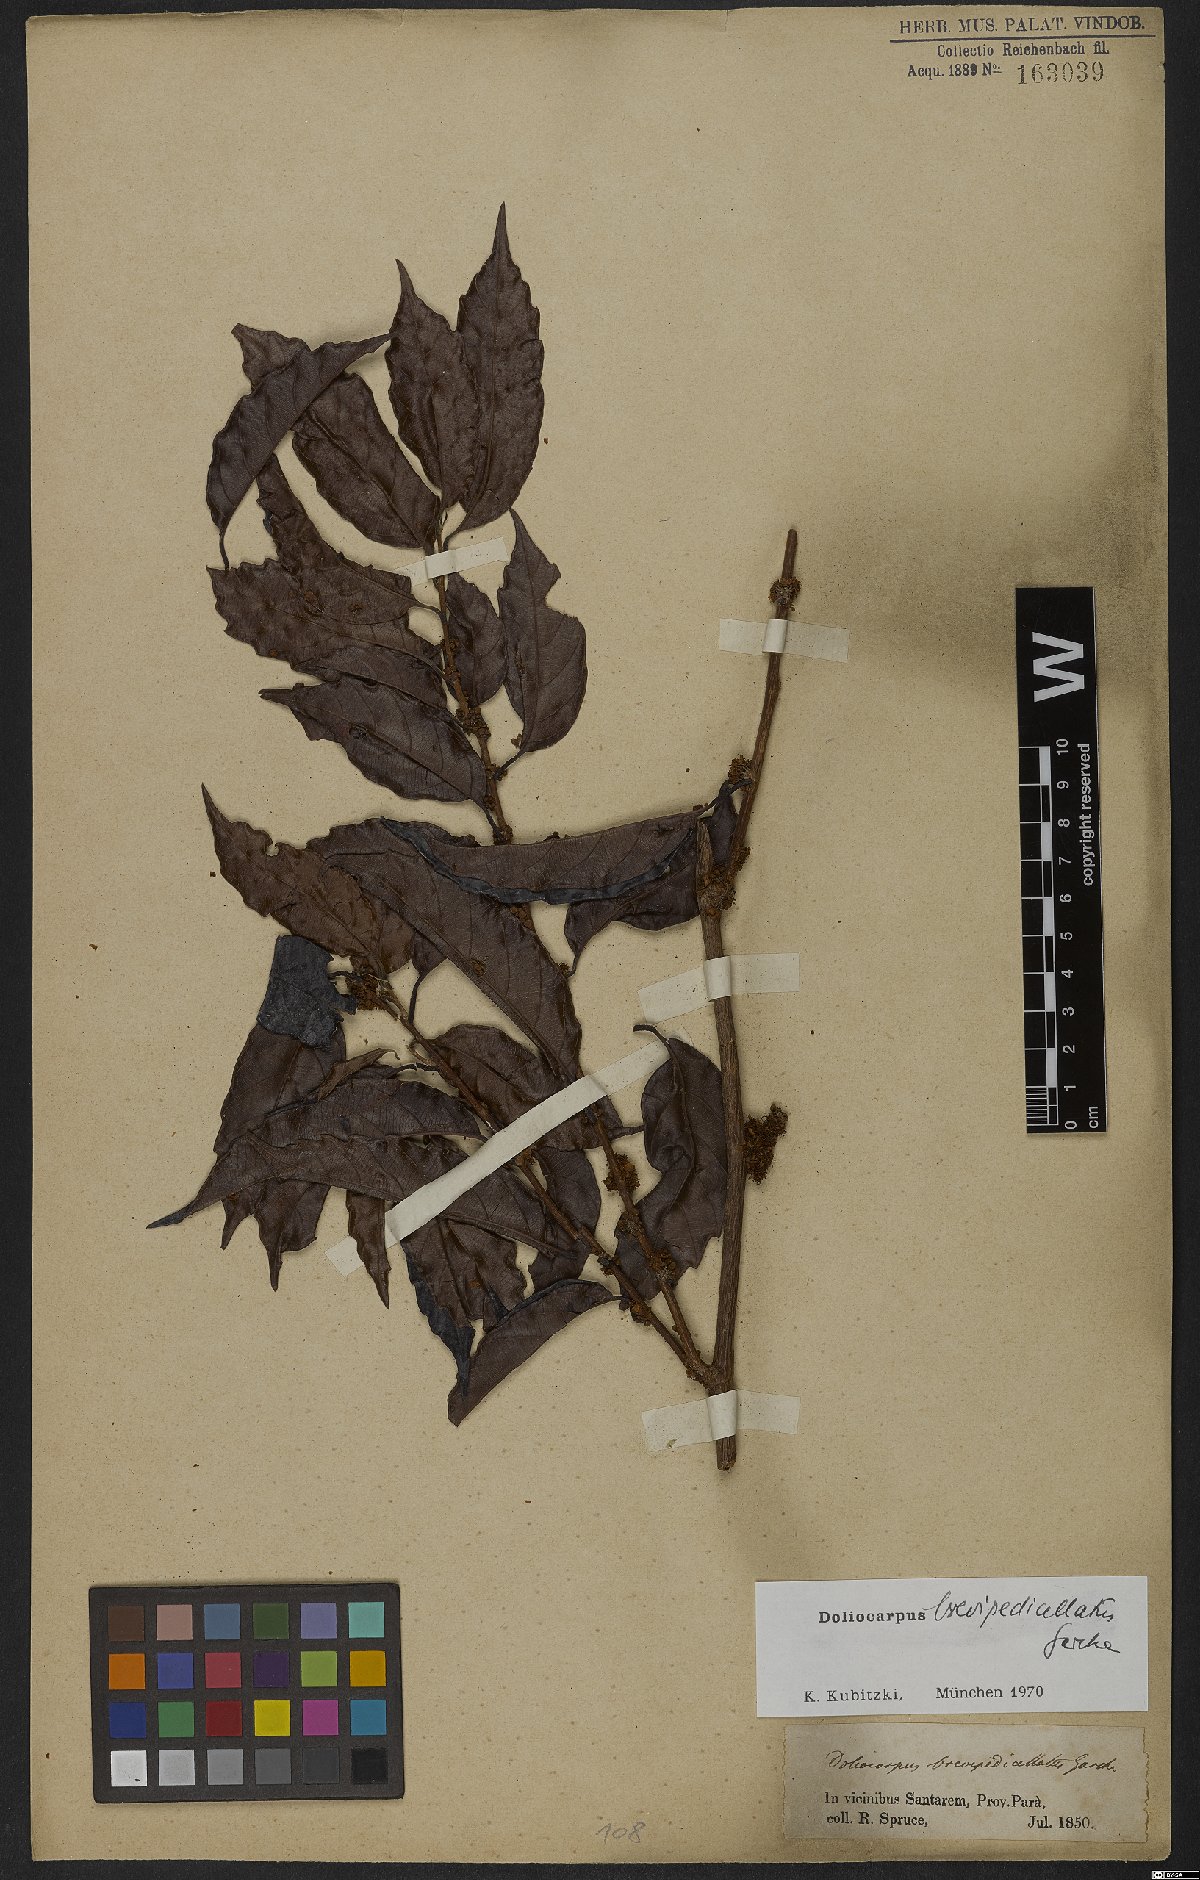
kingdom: Plantae
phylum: Tracheophyta
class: Magnoliopsida
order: Dilleniales
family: Dilleniaceae
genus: Doliocarpus
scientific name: Doliocarpus brevipedicellatus
